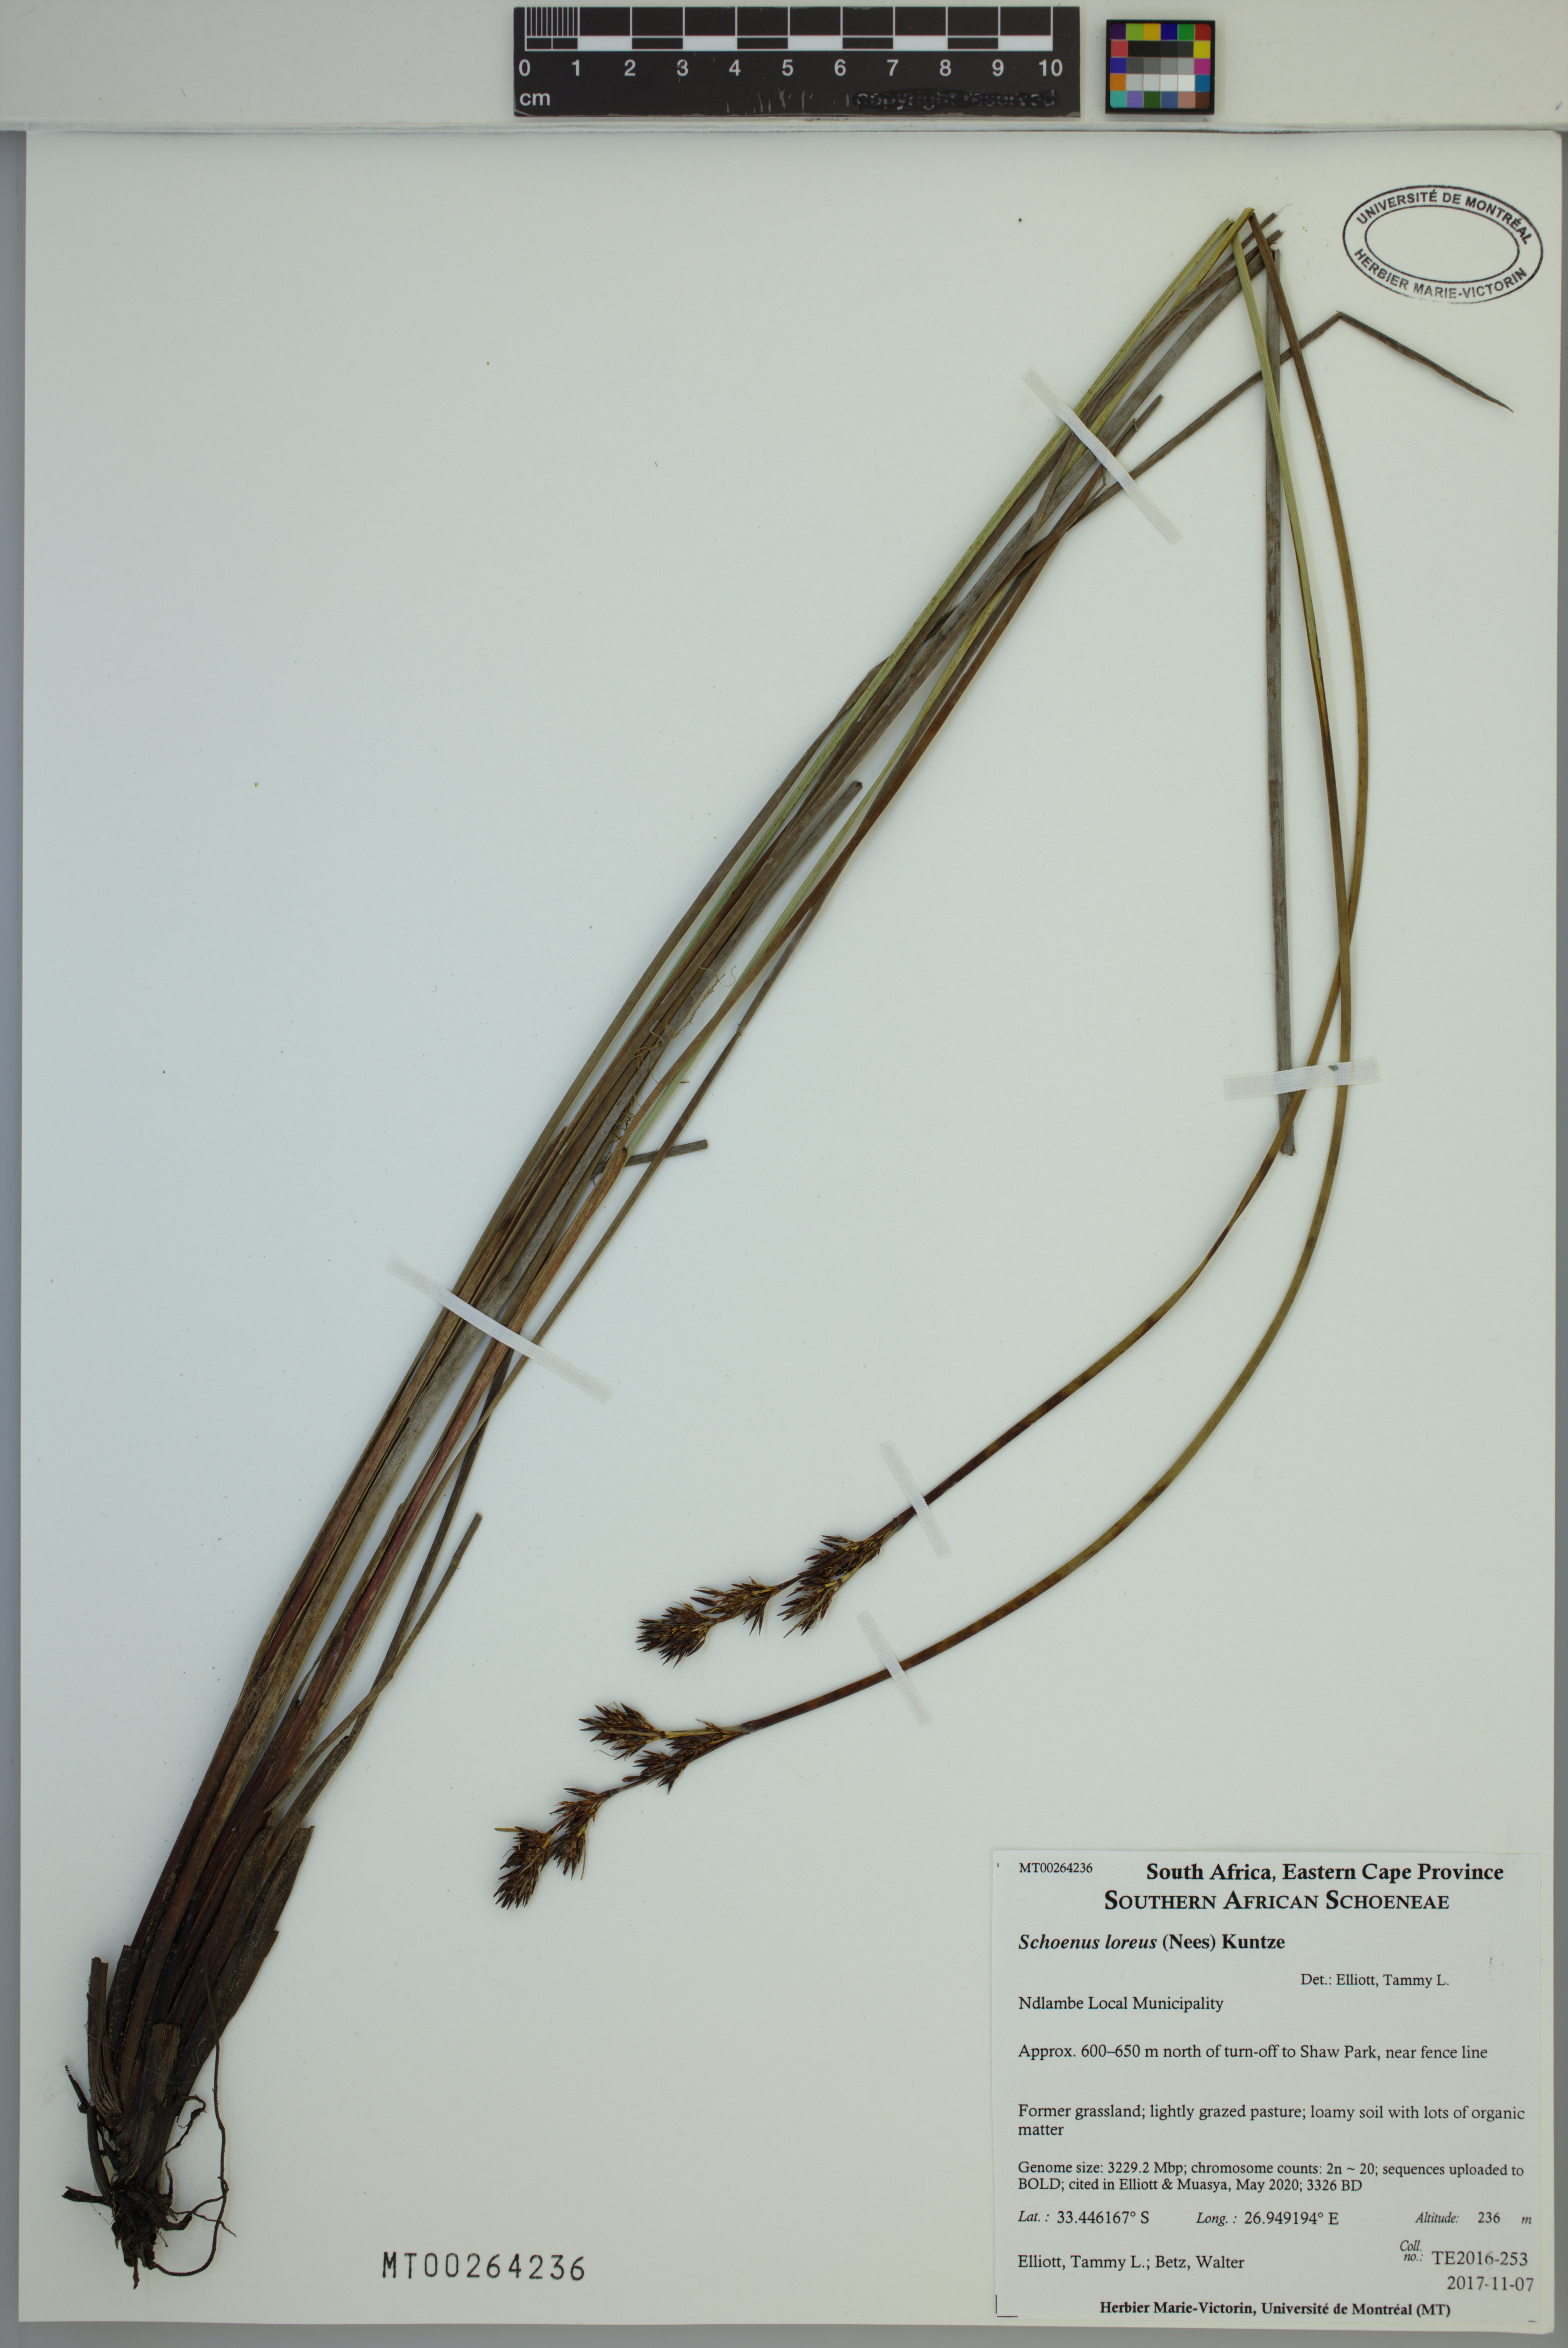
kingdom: Plantae
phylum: Tracheophyta
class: Liliopsida
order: Poales
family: Cyperaceae
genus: Schoenus
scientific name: Schoenus loreus
